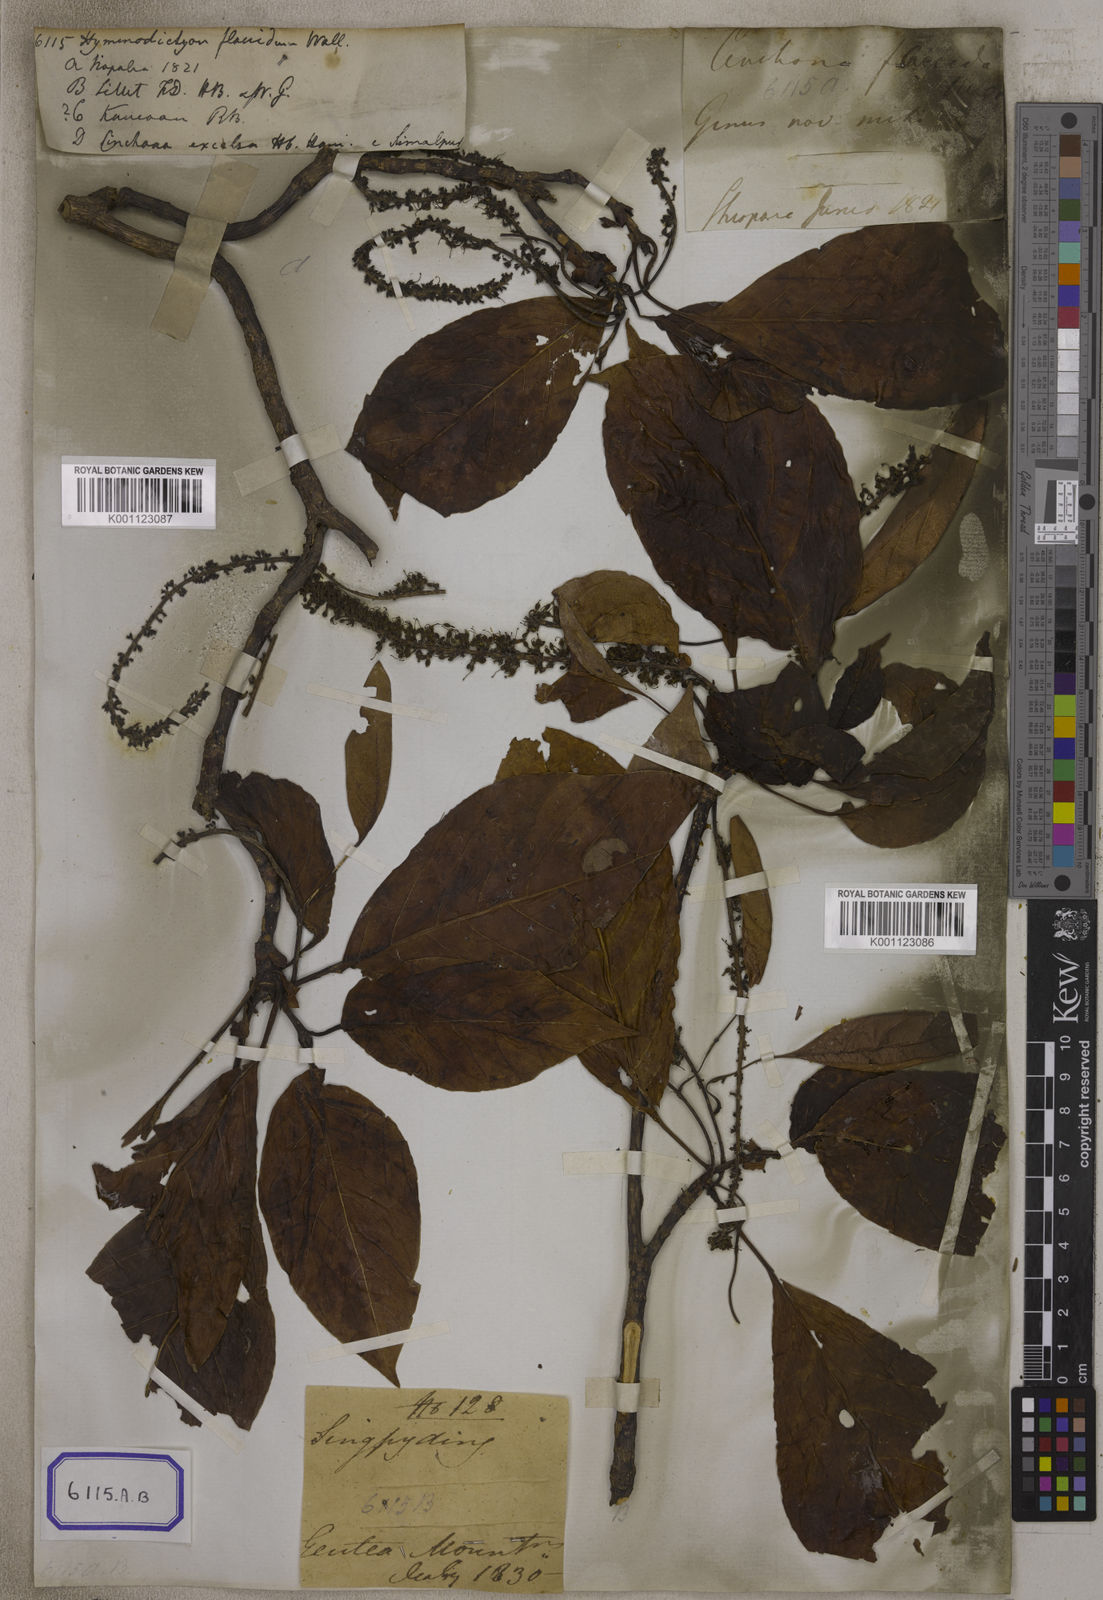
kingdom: Plantae
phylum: Tracheophyta
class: Magnoliopsida
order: Gentianales
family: Rubiaceae
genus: Hymenodictyon
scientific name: Hymenodictyon flaccidum
